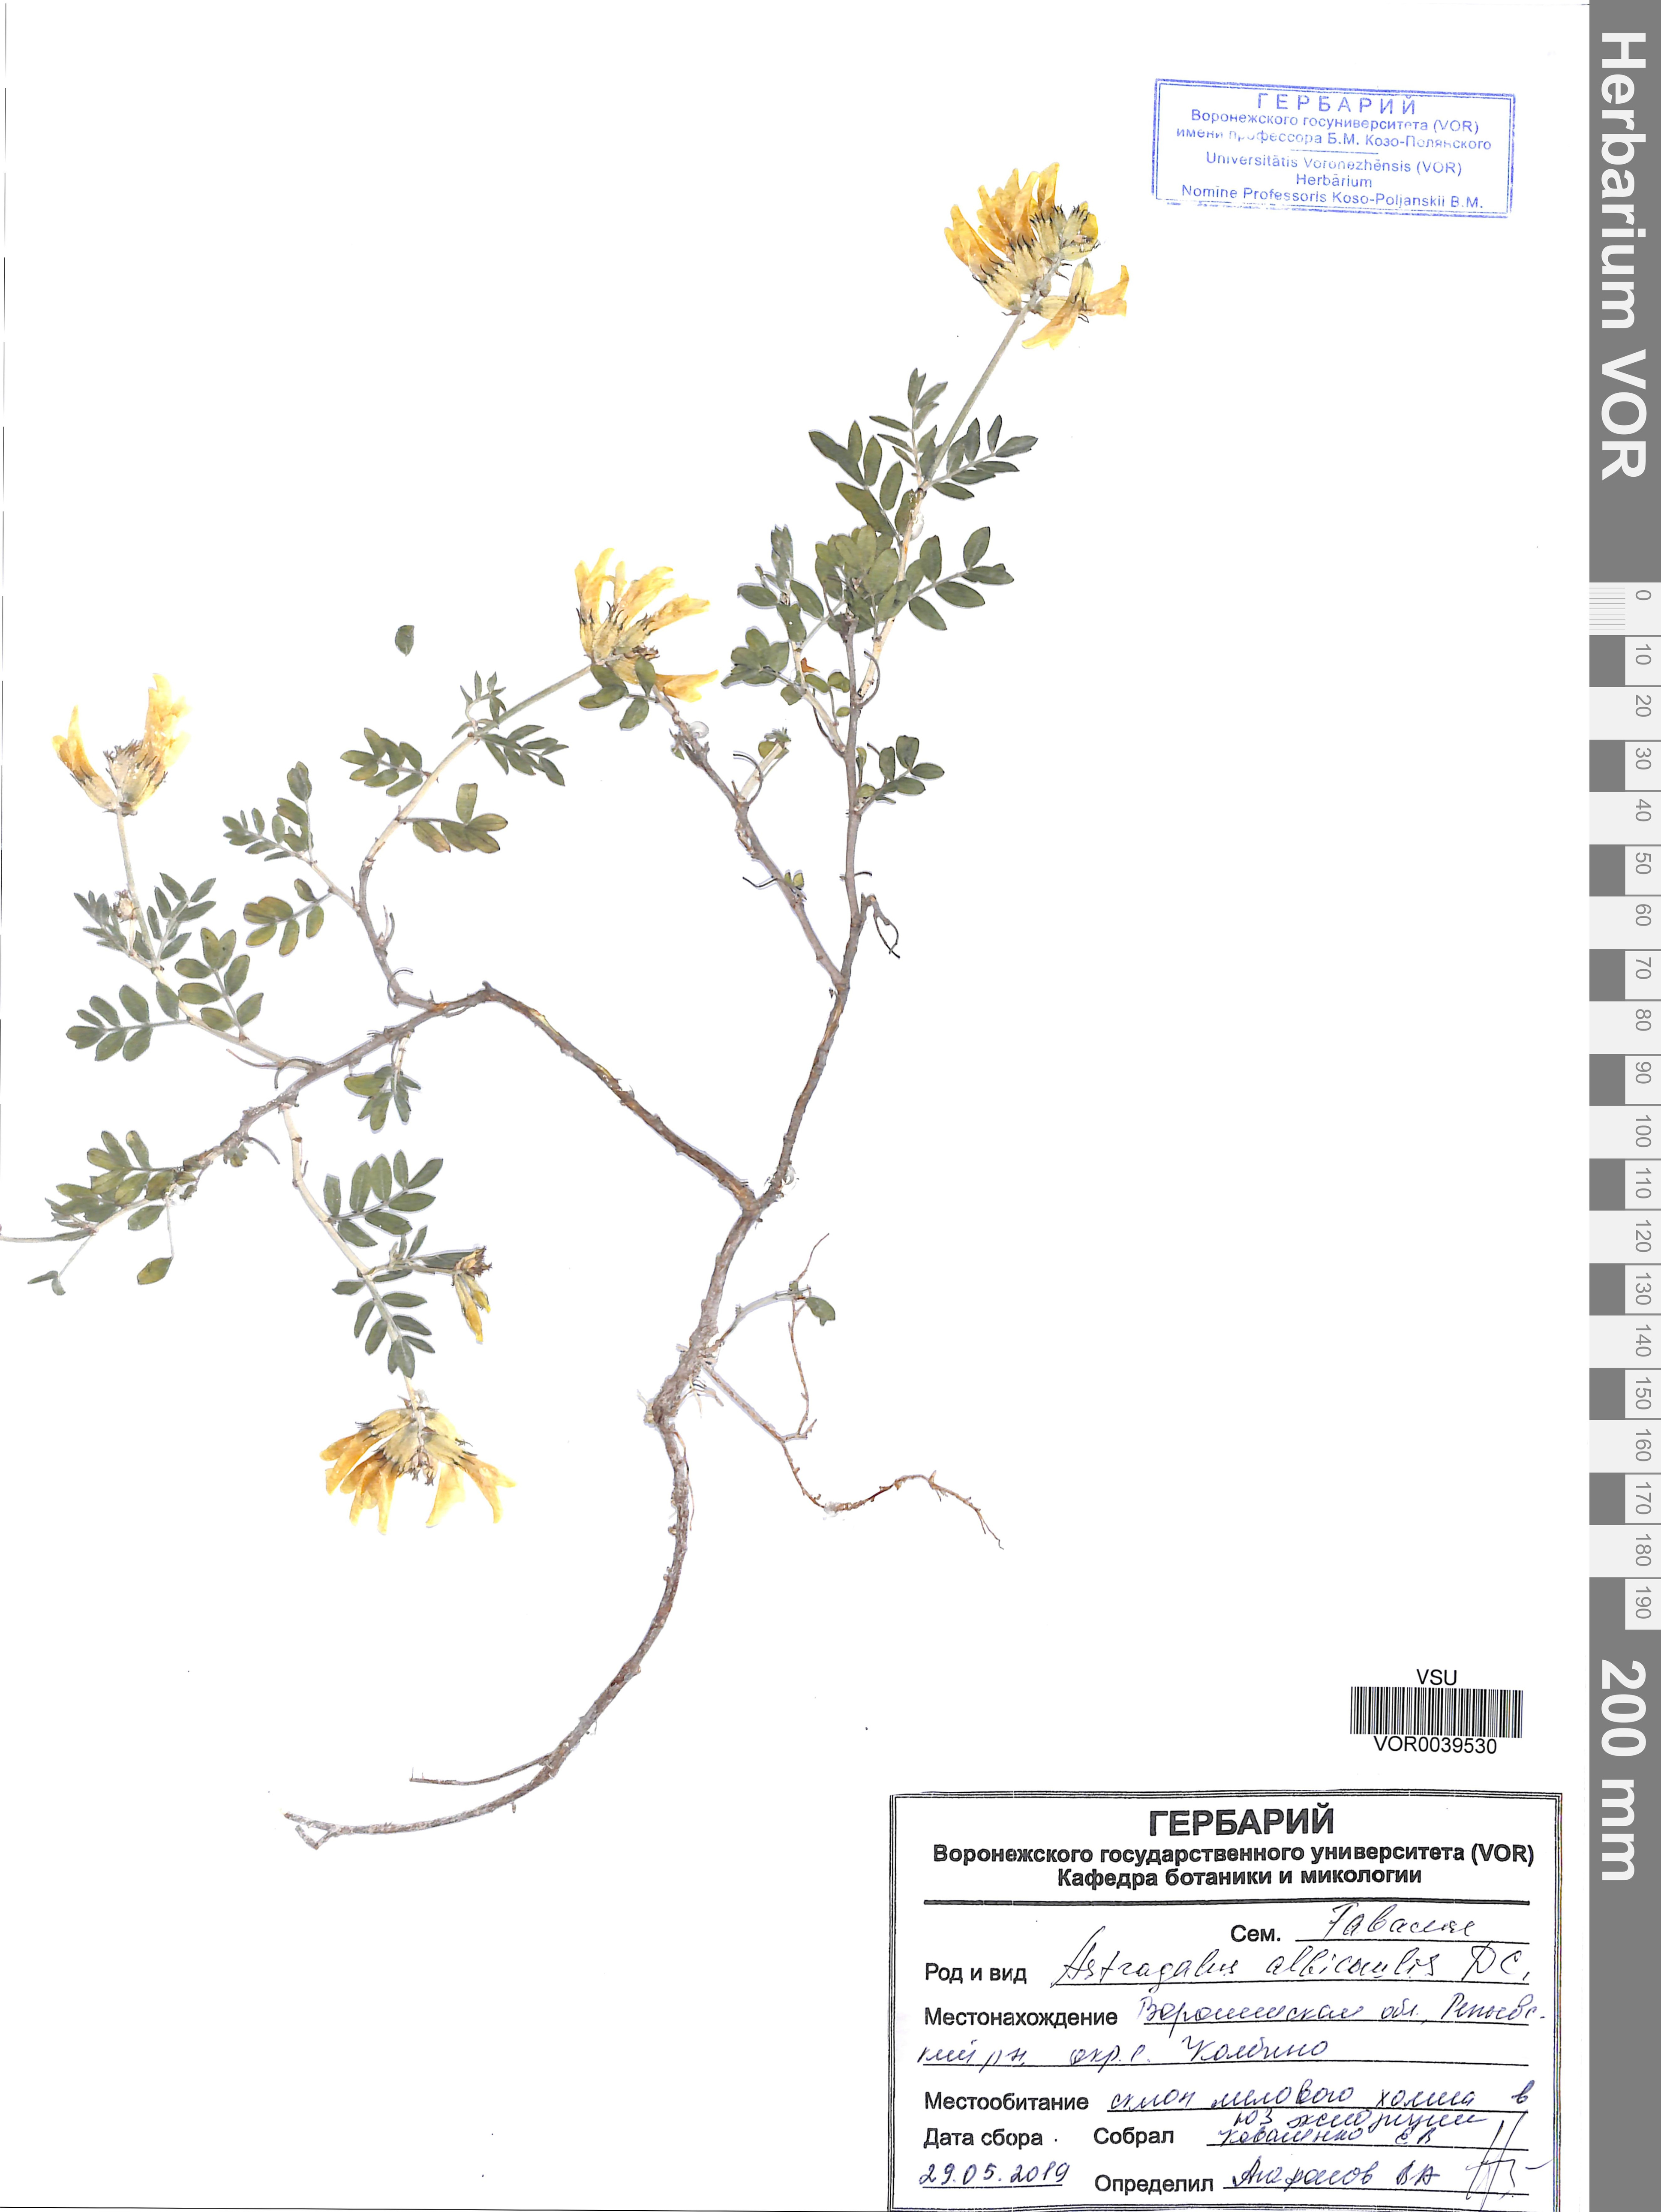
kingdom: Plantae
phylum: Tracheophyta
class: Magnoliopsida
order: Fabales
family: Fabaceae
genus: Astragalus
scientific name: Astragalus albicaulis
